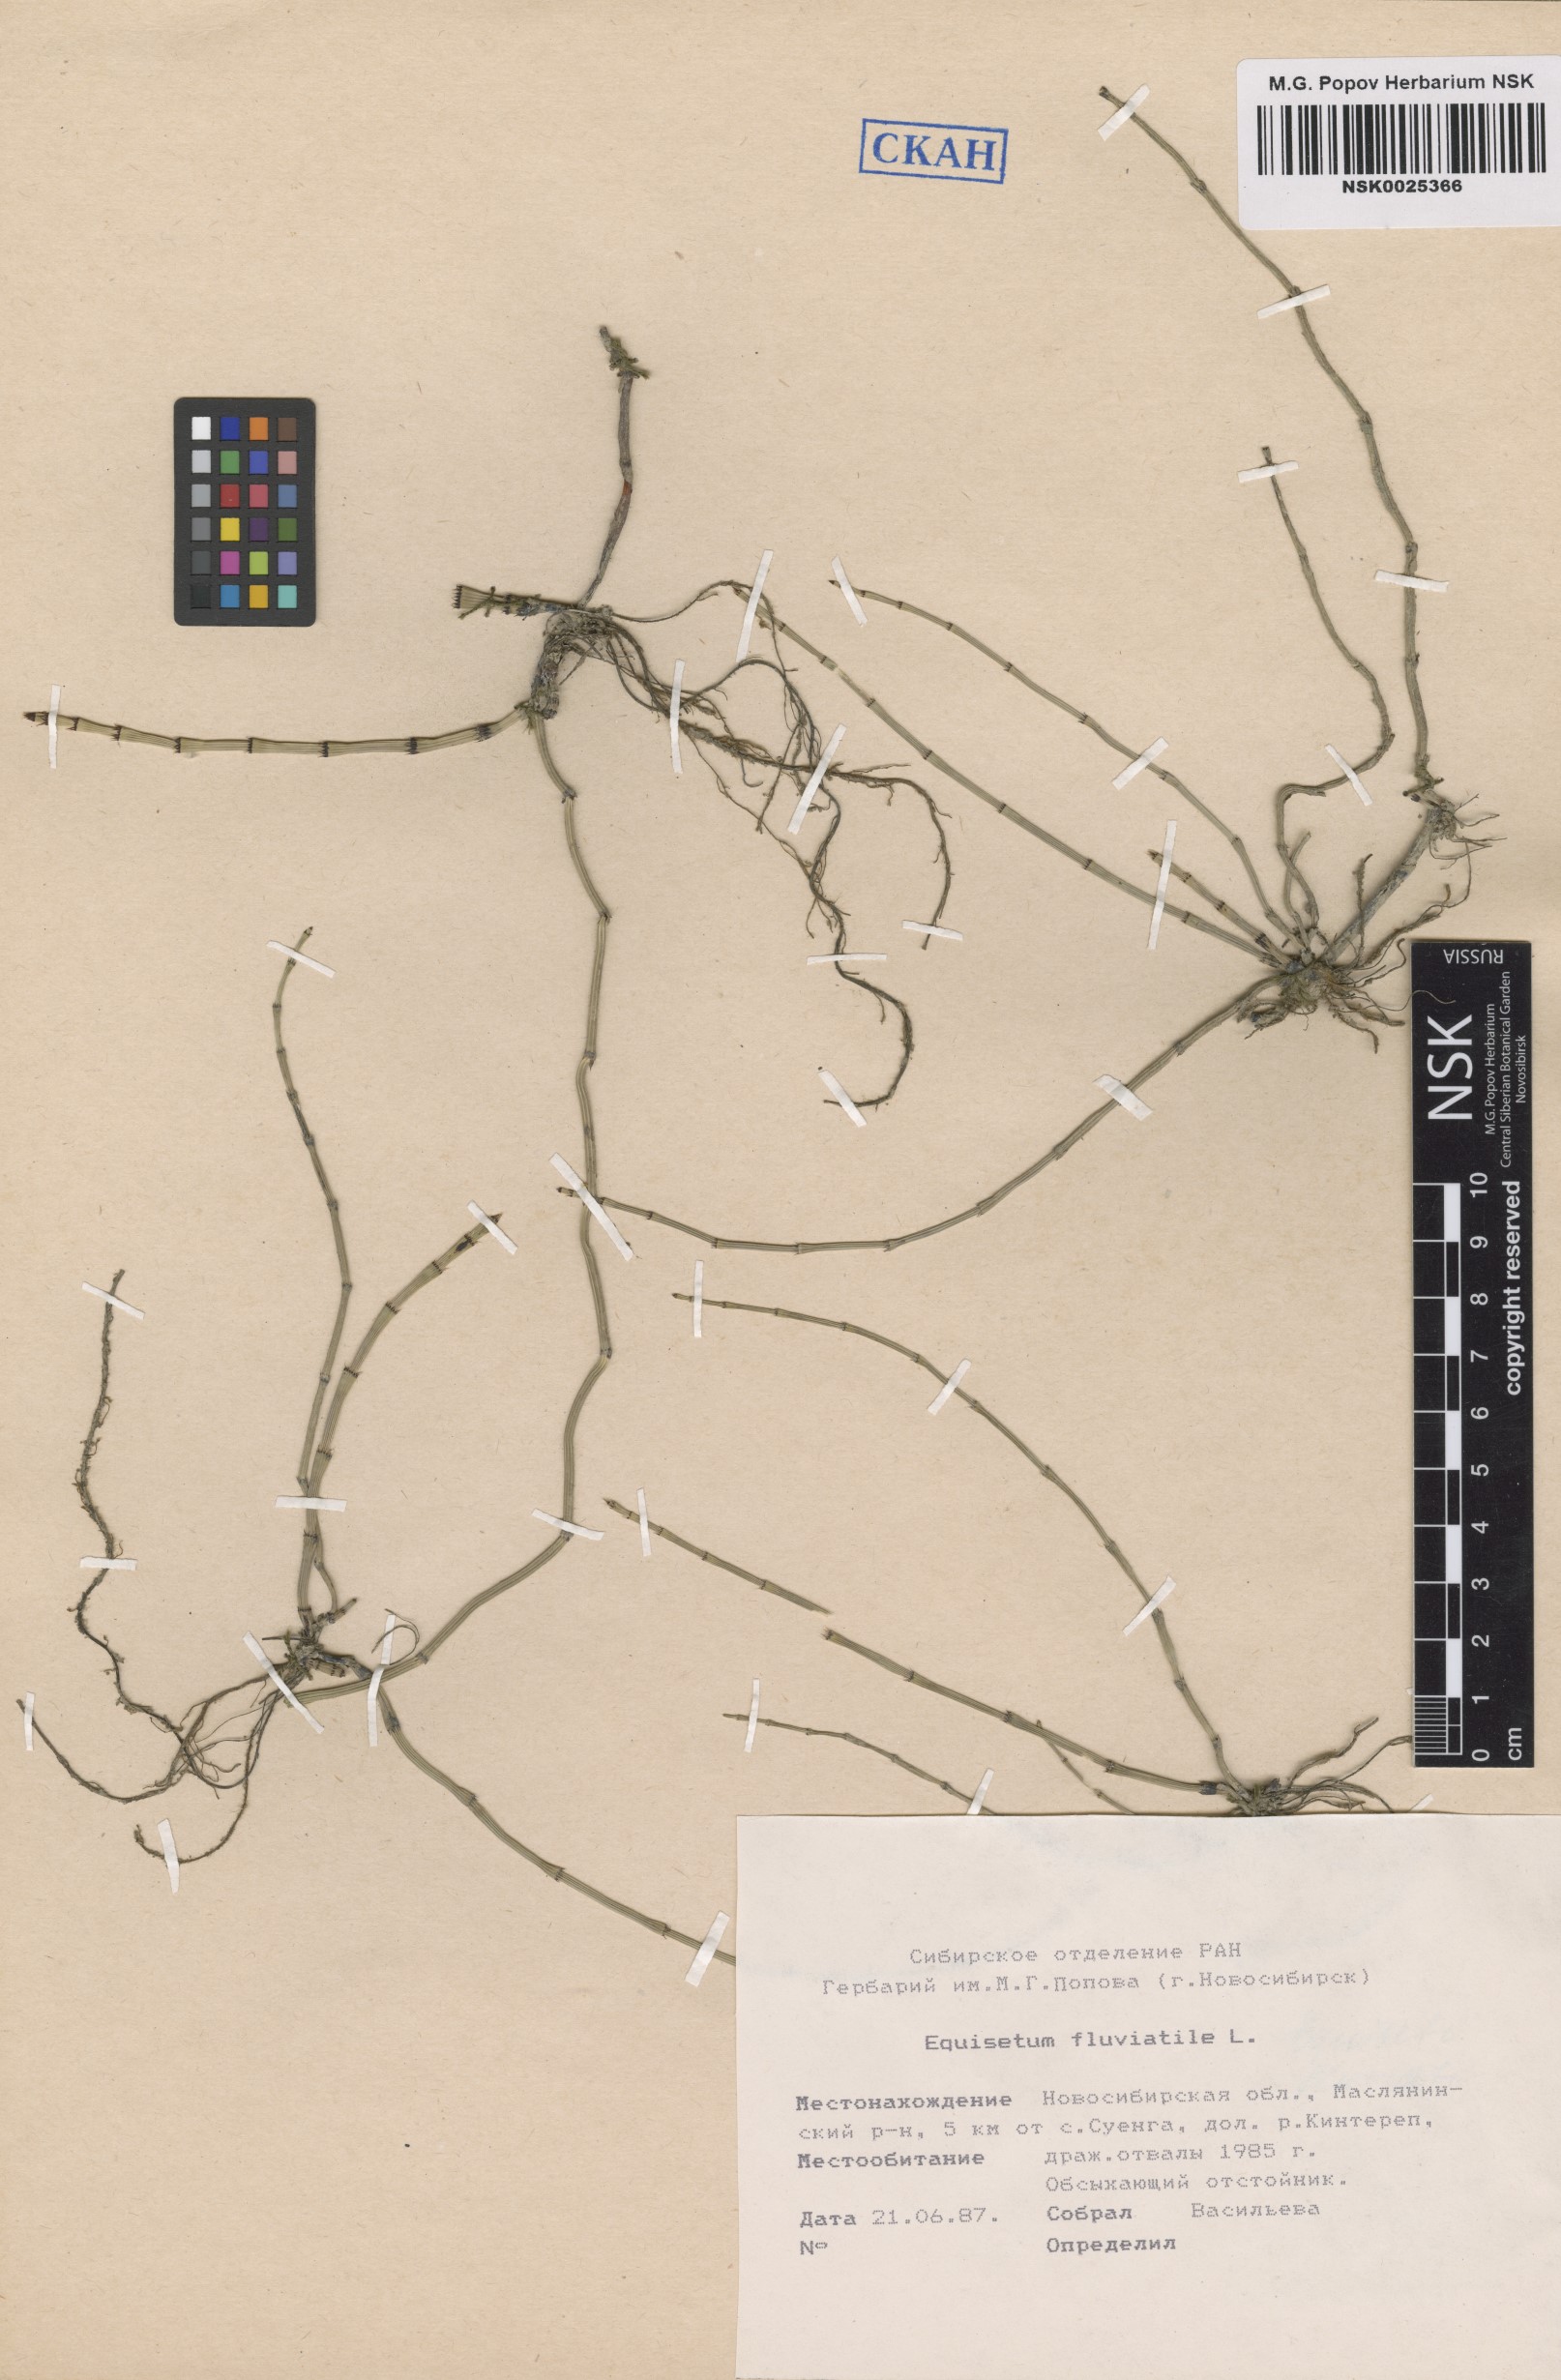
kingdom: Plantae
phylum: Tracheophyta
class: Polypodiopsida
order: Equisetales
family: Equisetaceae
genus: Equisetum
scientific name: Equisetum fluviatile
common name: Water horsetail
